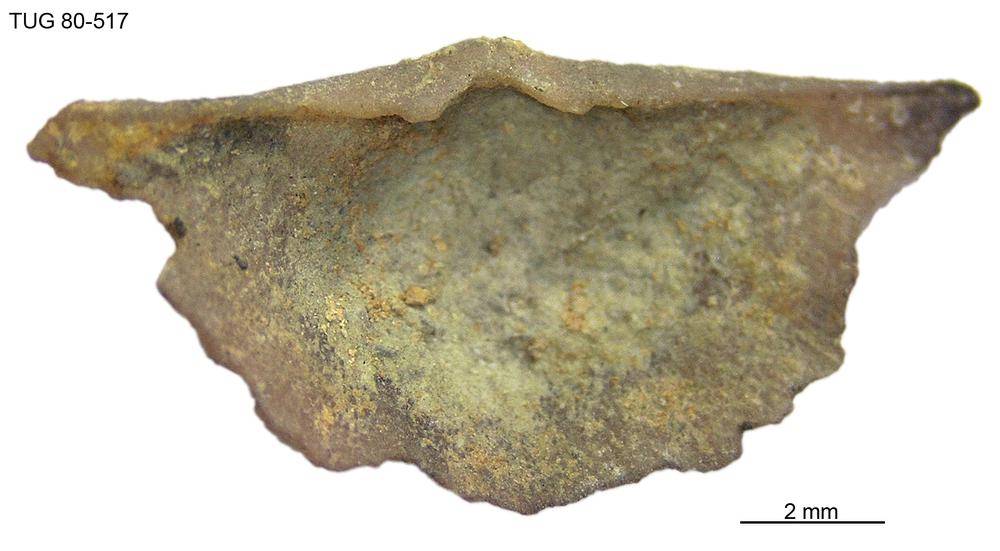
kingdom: Animalia
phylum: Brachiopoda
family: Sowerbyellidae
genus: Sowerbyella
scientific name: Sowerbyella
